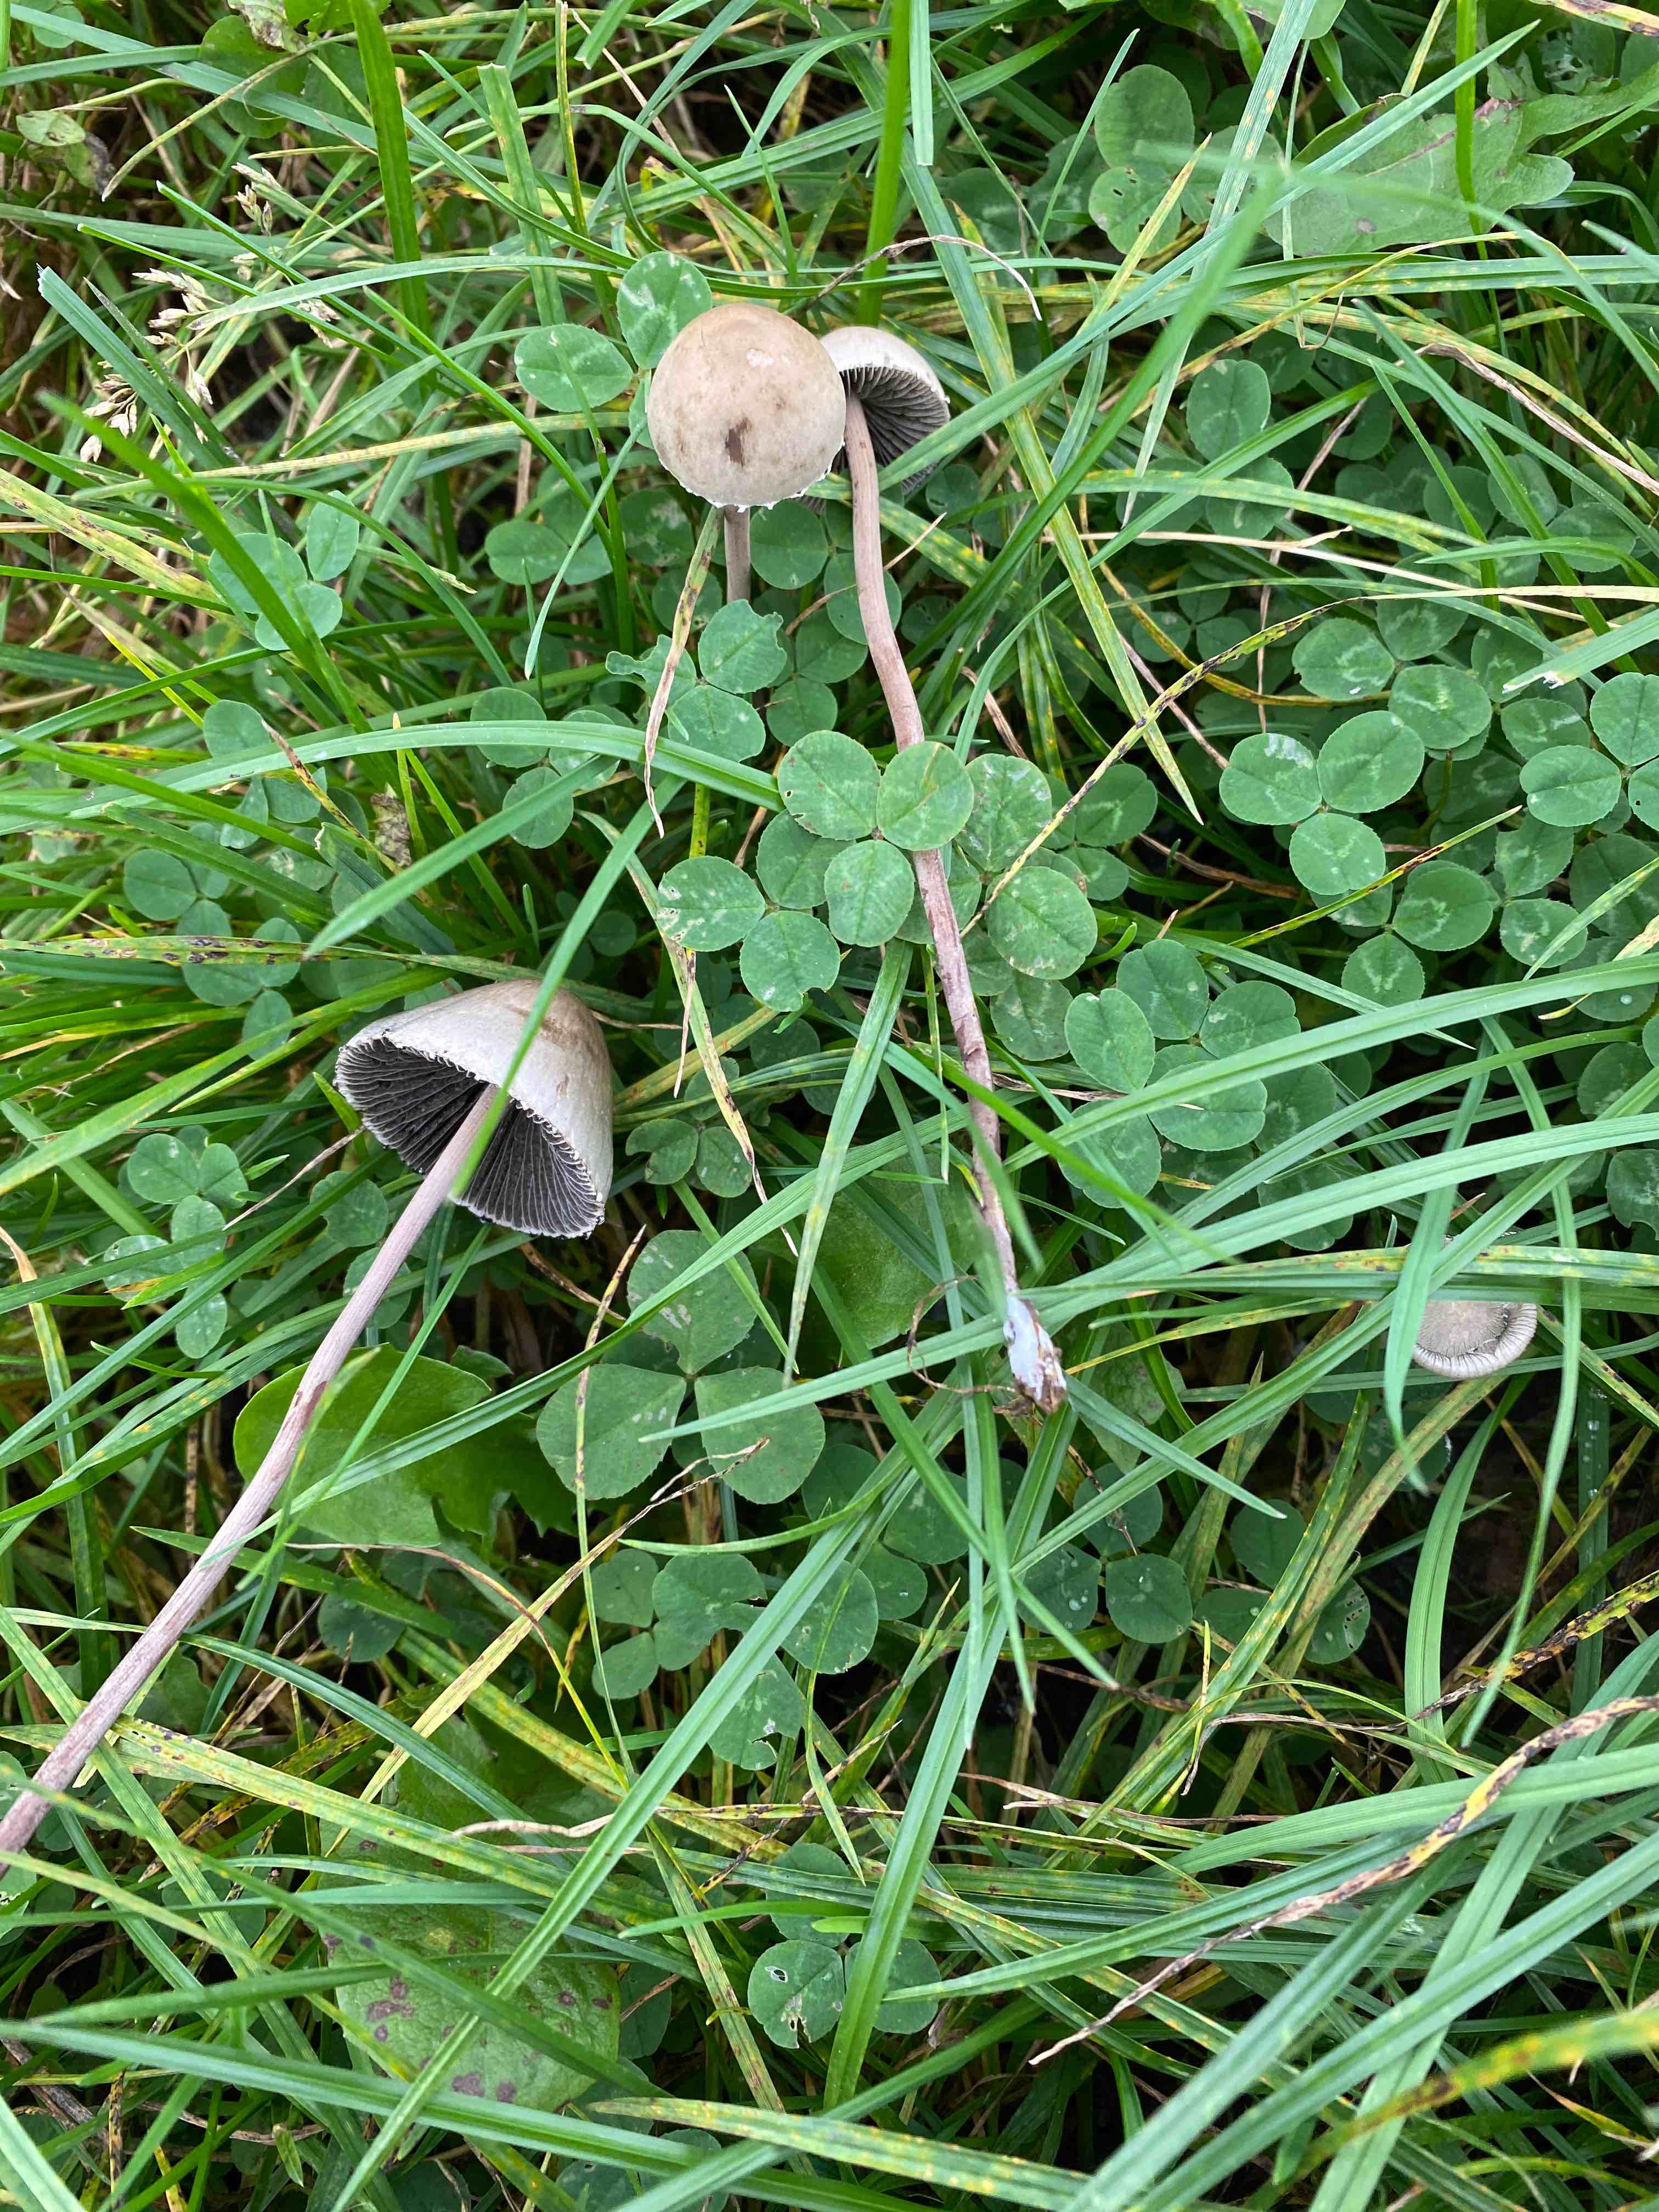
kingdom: Fungi
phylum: Basidiomycota
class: Agaricomycetes
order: Agaricales
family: Bolbitiaceae
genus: Panaeolus
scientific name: Panaeolus papilionaceus
